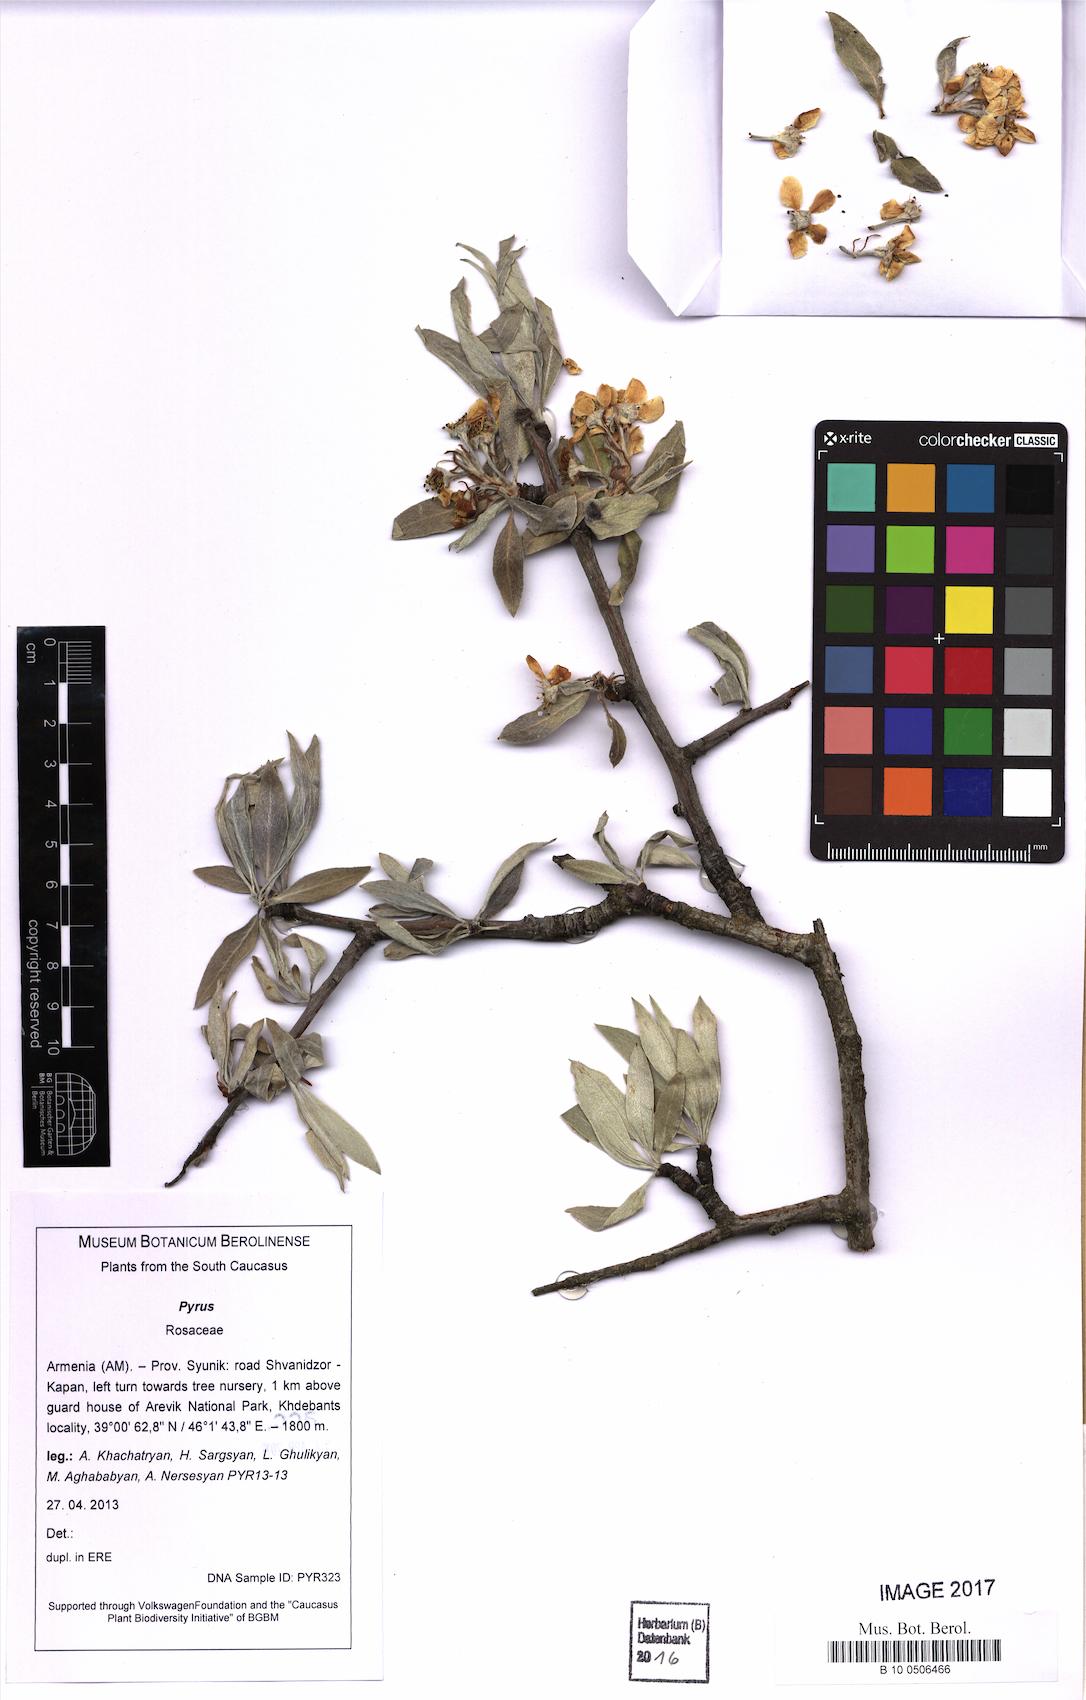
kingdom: Plantae
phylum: Tracheophyta
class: Magnoliopsida
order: Rosales
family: Rosaceae
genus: Pyrus
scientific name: Pyrus
